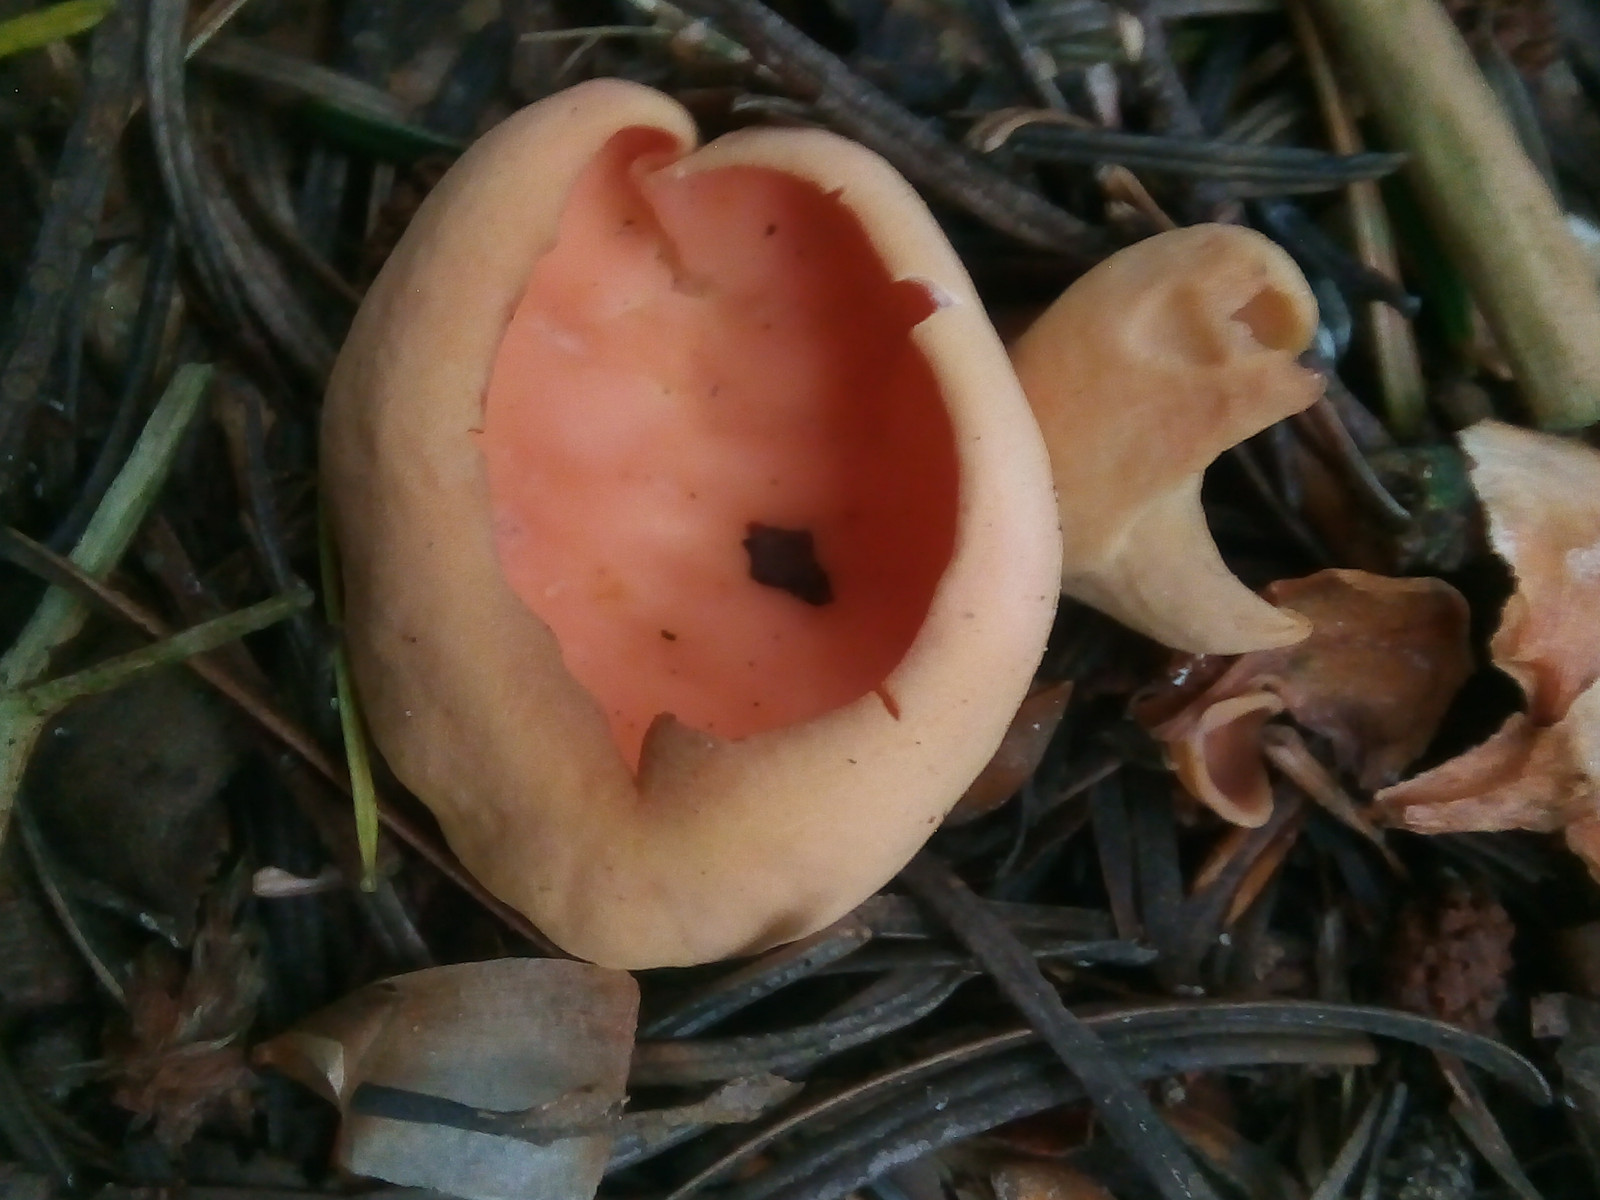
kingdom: Fungi
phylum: Ascomycota
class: Pezizomycetes
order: Pezizales
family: Otideaceae
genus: Otidea
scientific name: Otidea onotica
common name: æsel-ørebæger
